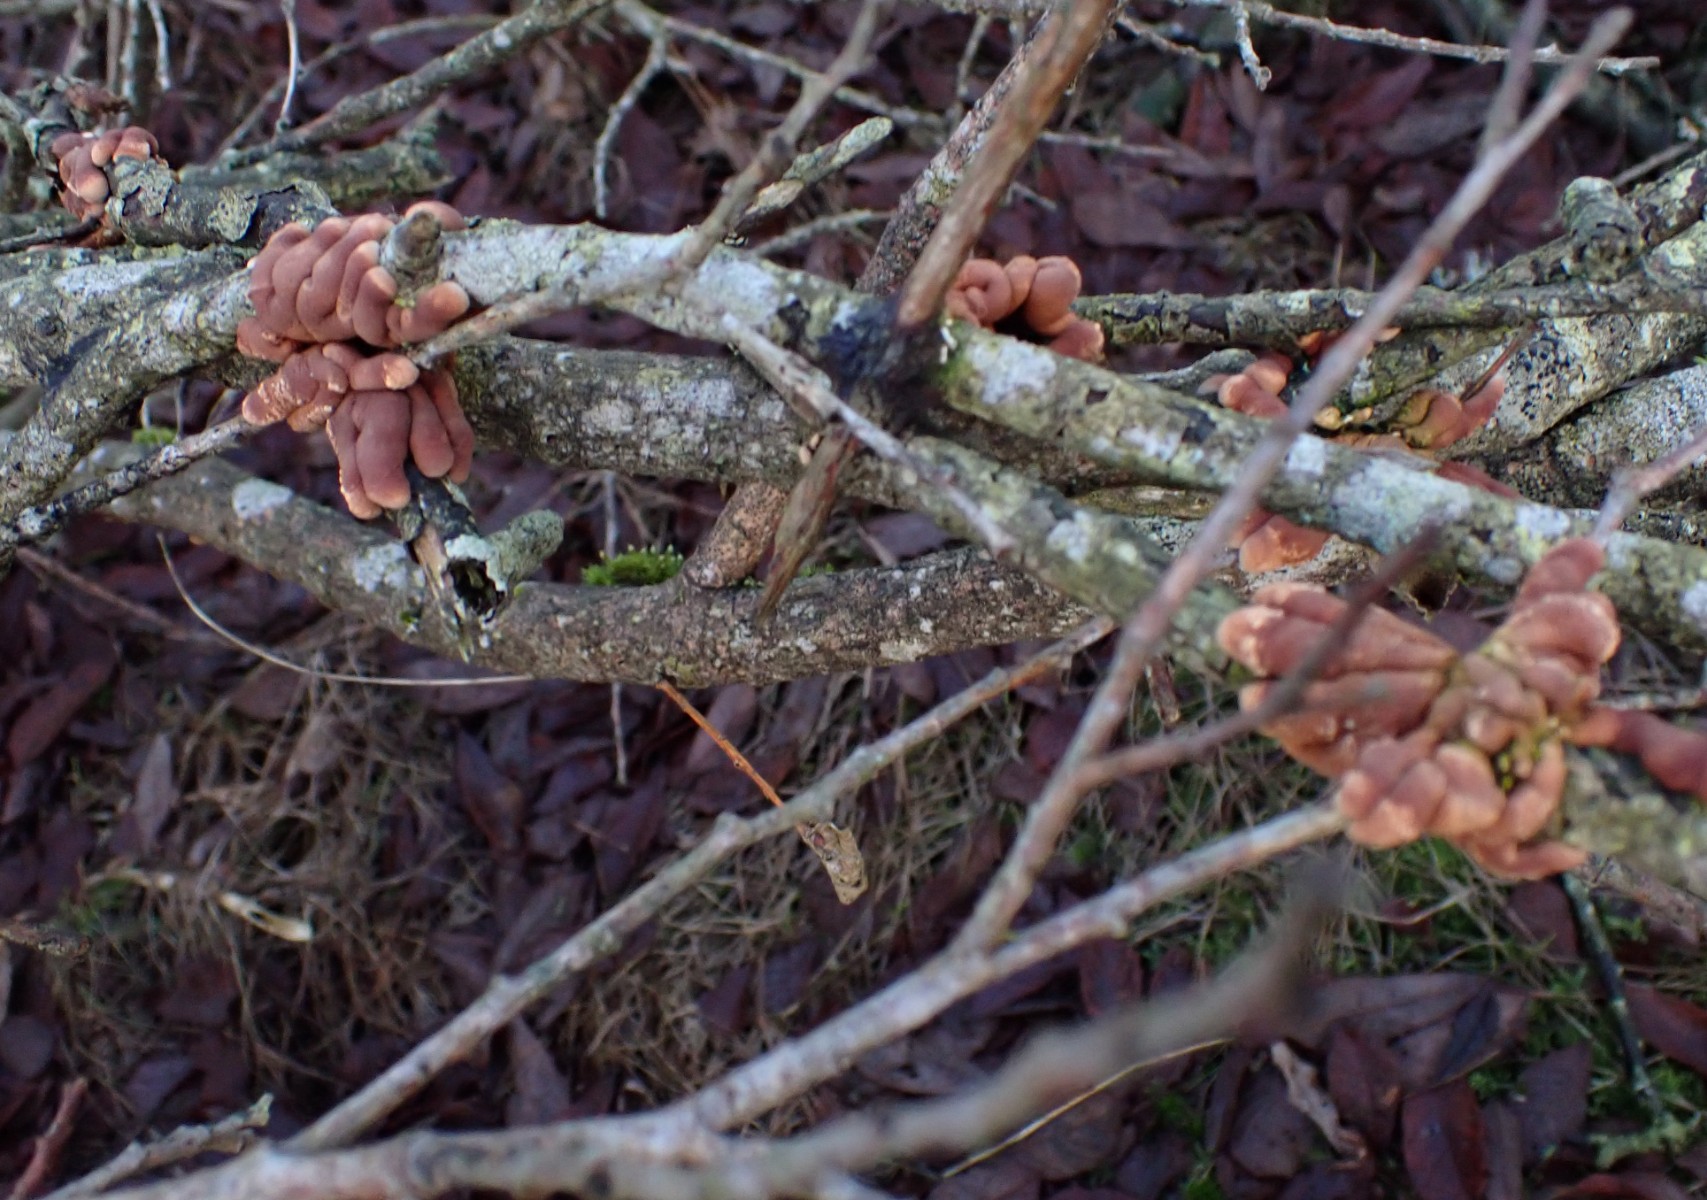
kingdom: Fungi
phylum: Ascomycota
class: Sordariomycetes
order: Hypocreales
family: Hypocreaceae
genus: Hypocreopsis
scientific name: Hypocreopsis lichenoides
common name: pilfinger
